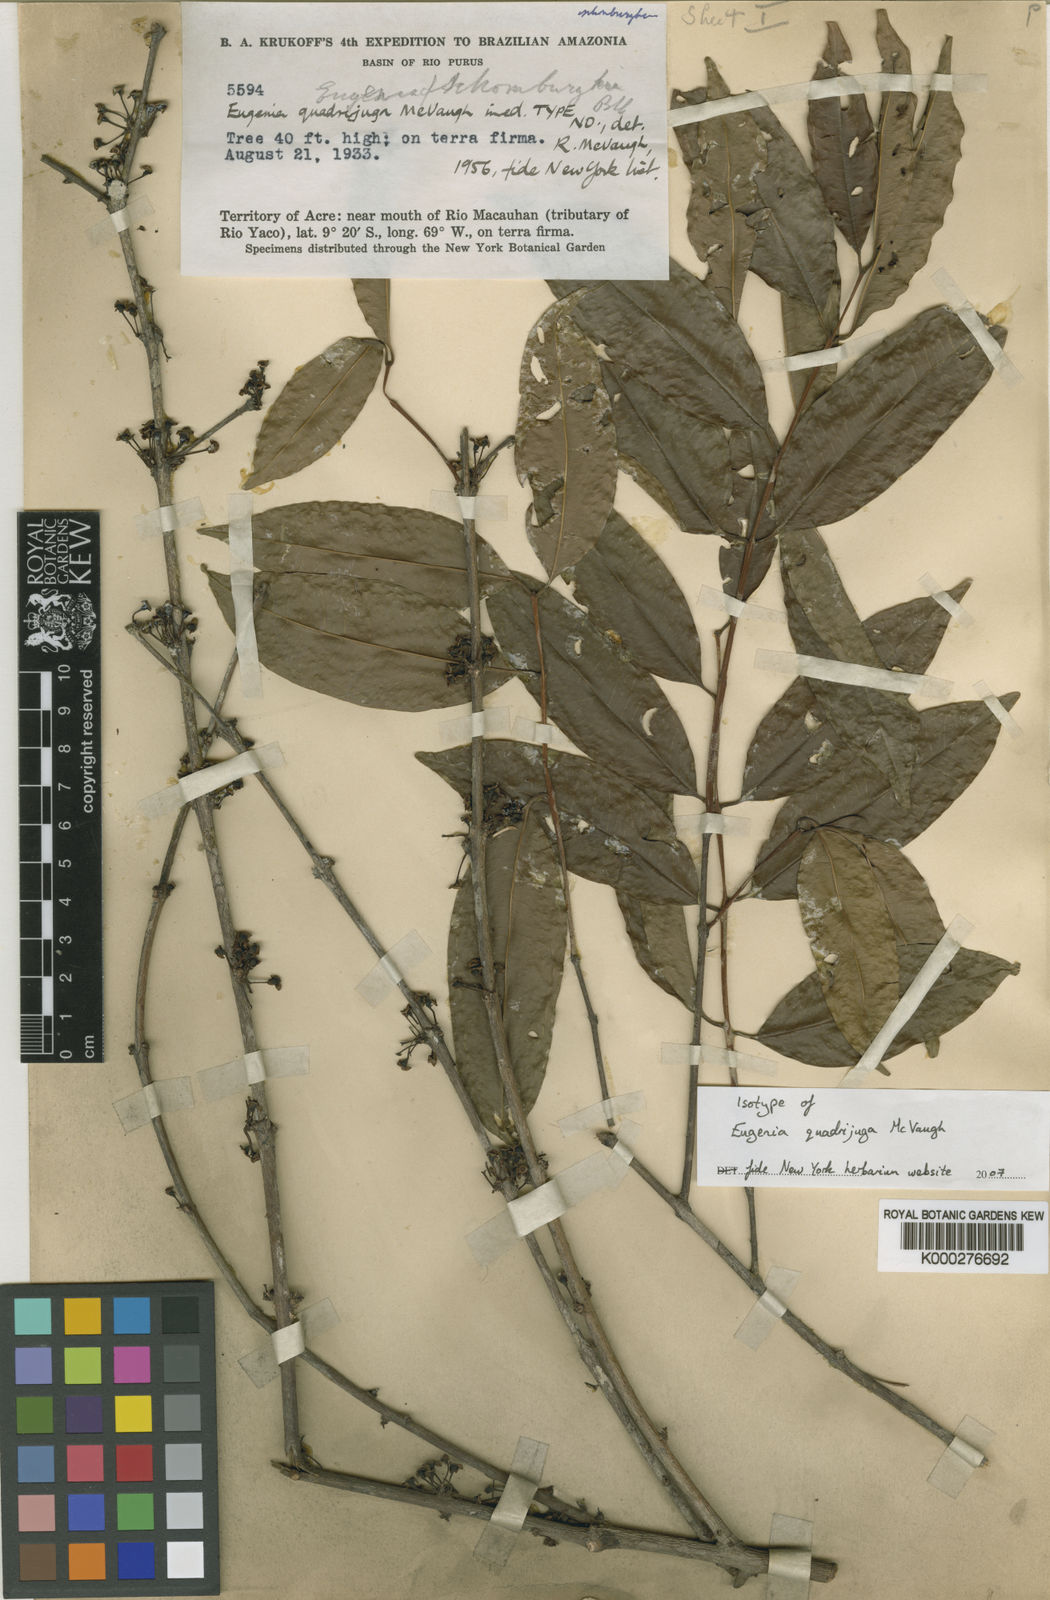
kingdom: Plantae
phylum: Tracheophyta
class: Magnoliopsida
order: Myrtales
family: Myrtaceae
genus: Eugenia
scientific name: Eugenia quadrijuga
